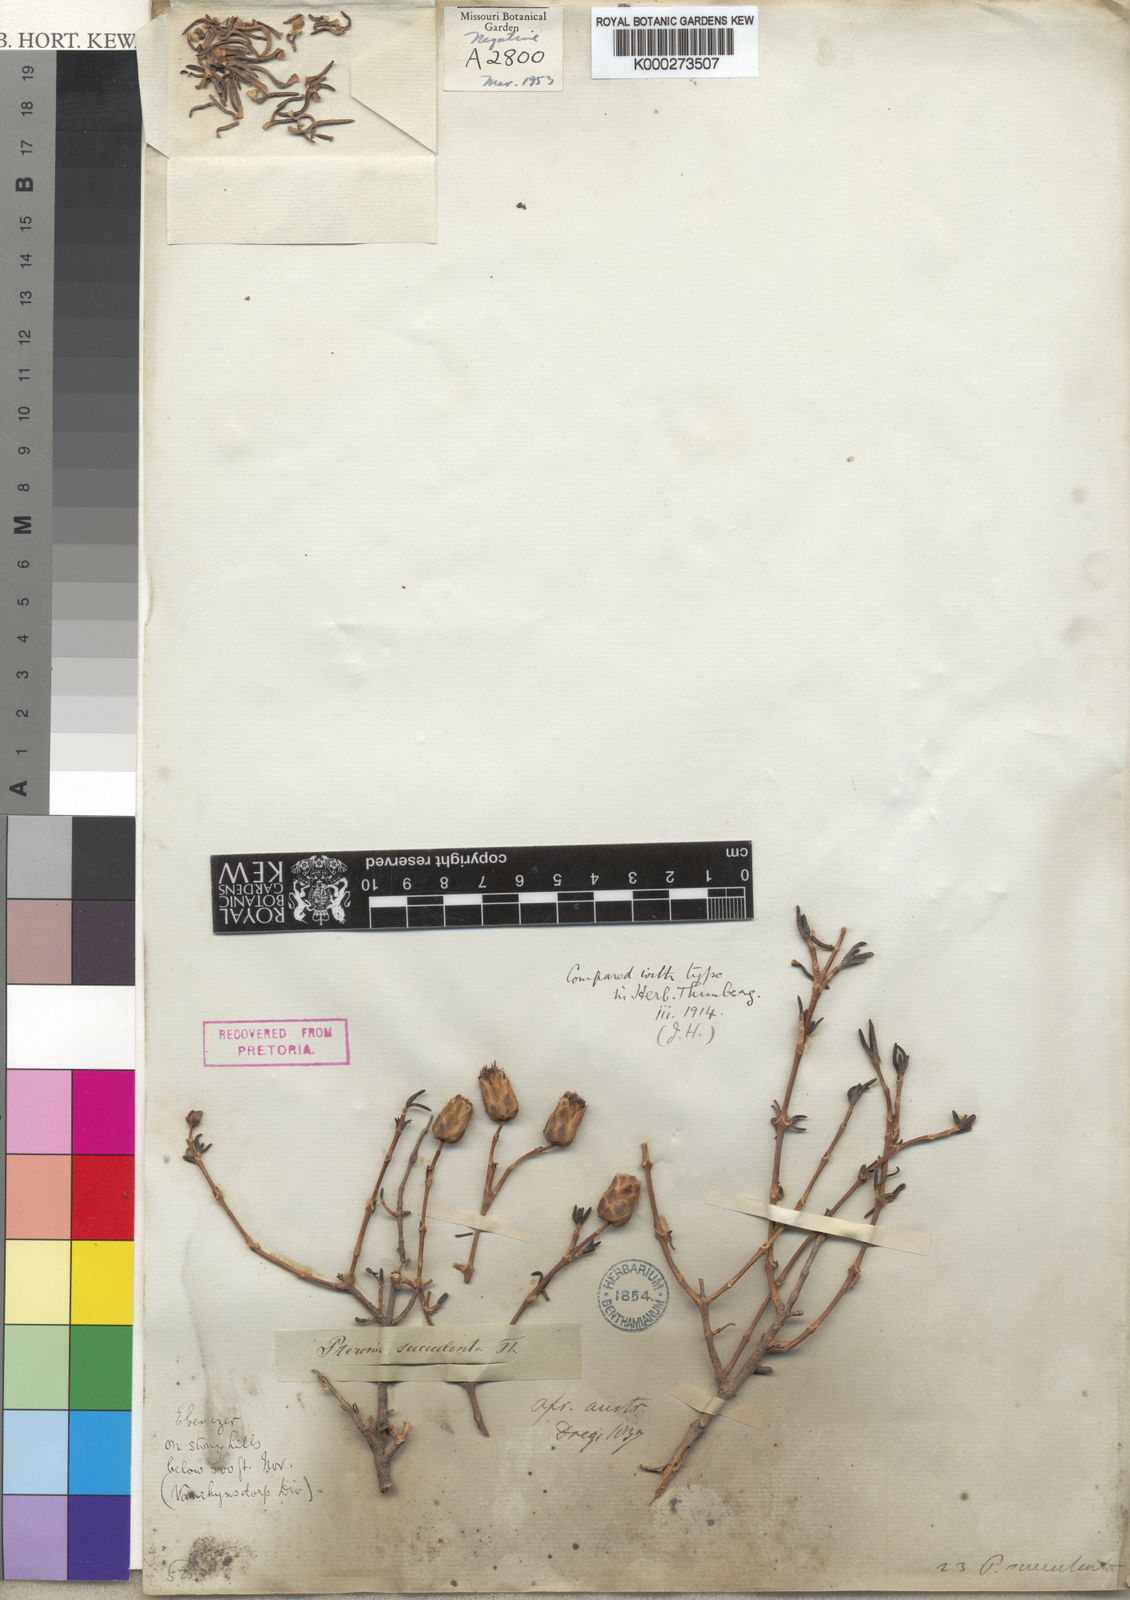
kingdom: Plantae
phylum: Tracheophyta
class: Magnoliopsida
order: Asterales
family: Asteraceae
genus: Pteronia
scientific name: Pteronia succulenta
